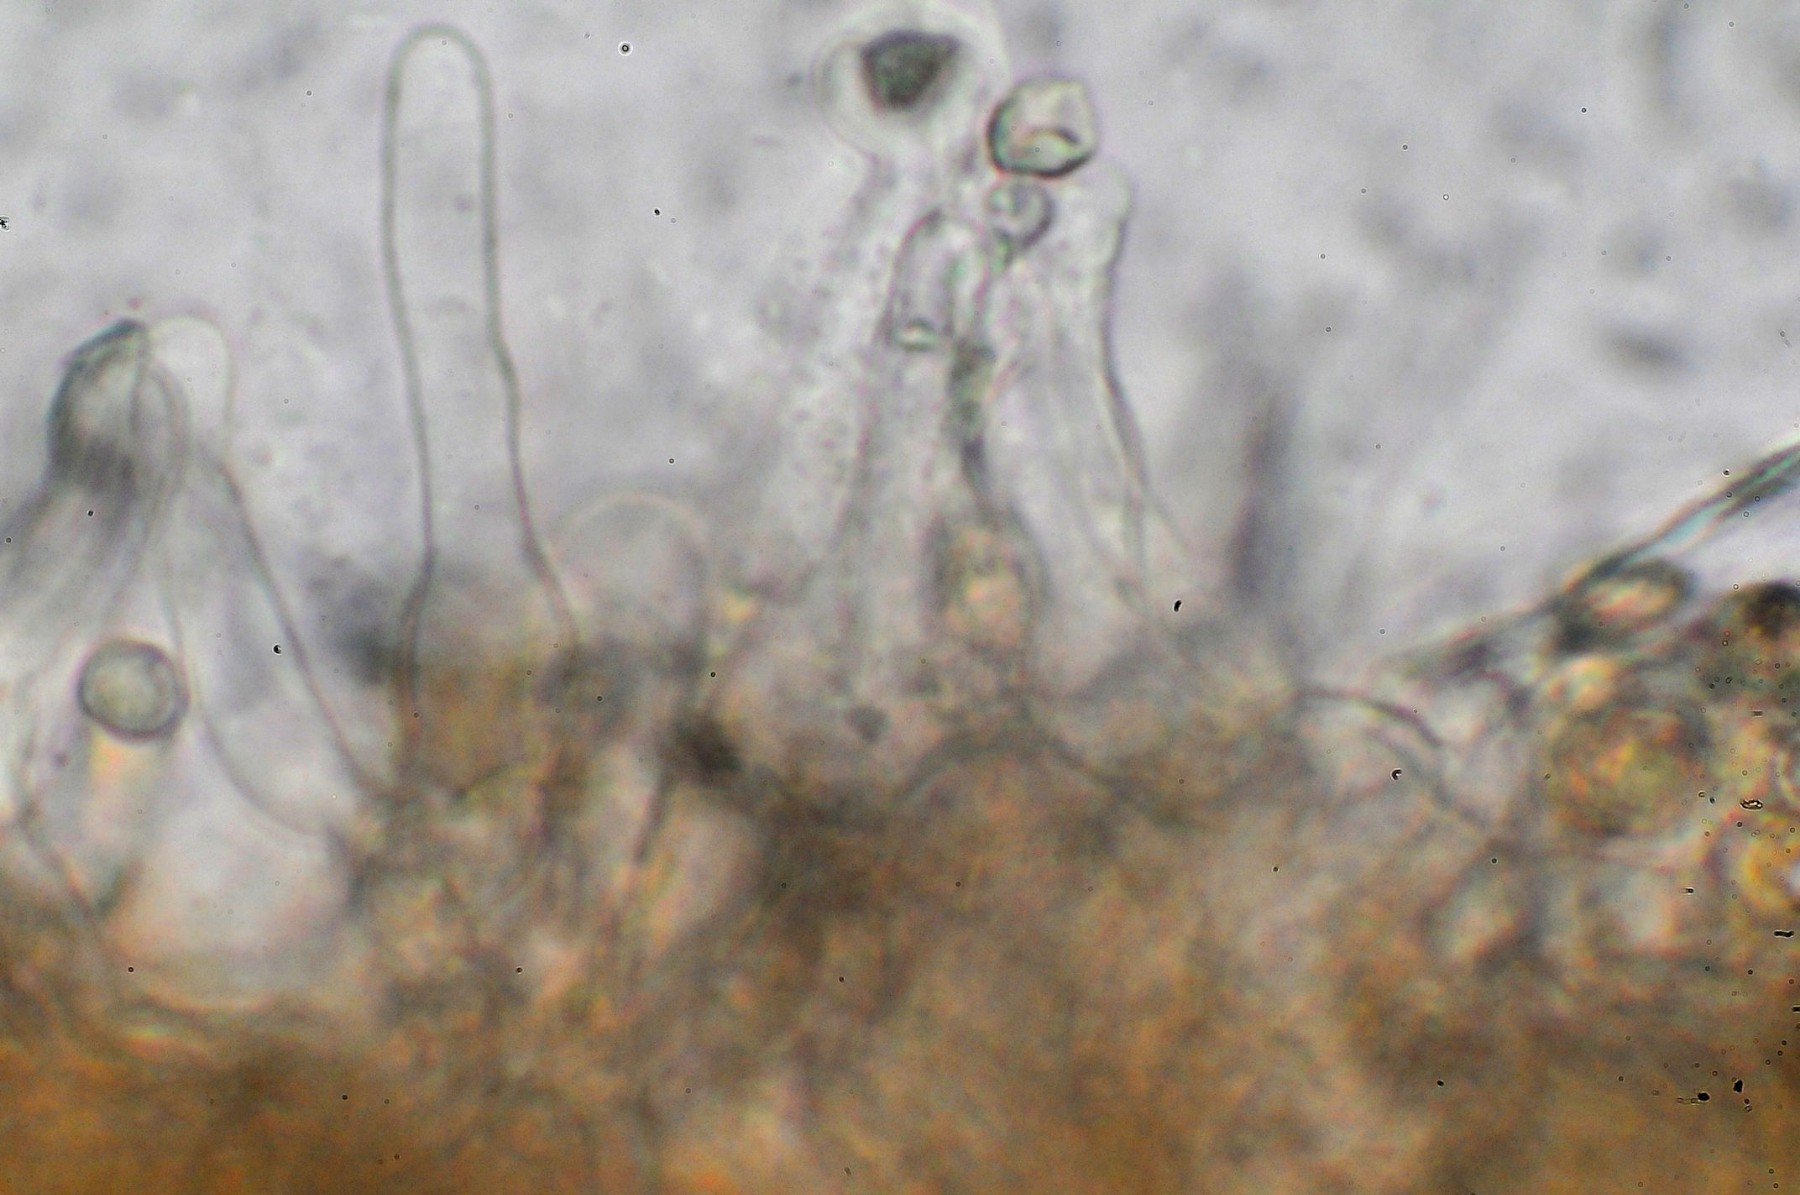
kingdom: Fungi
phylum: Basidiomycota
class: Agaricomycetes
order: Agaricales
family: Tubariaceae
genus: Tubaria
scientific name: Tubaria furfuracea
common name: kliddet fnughat
